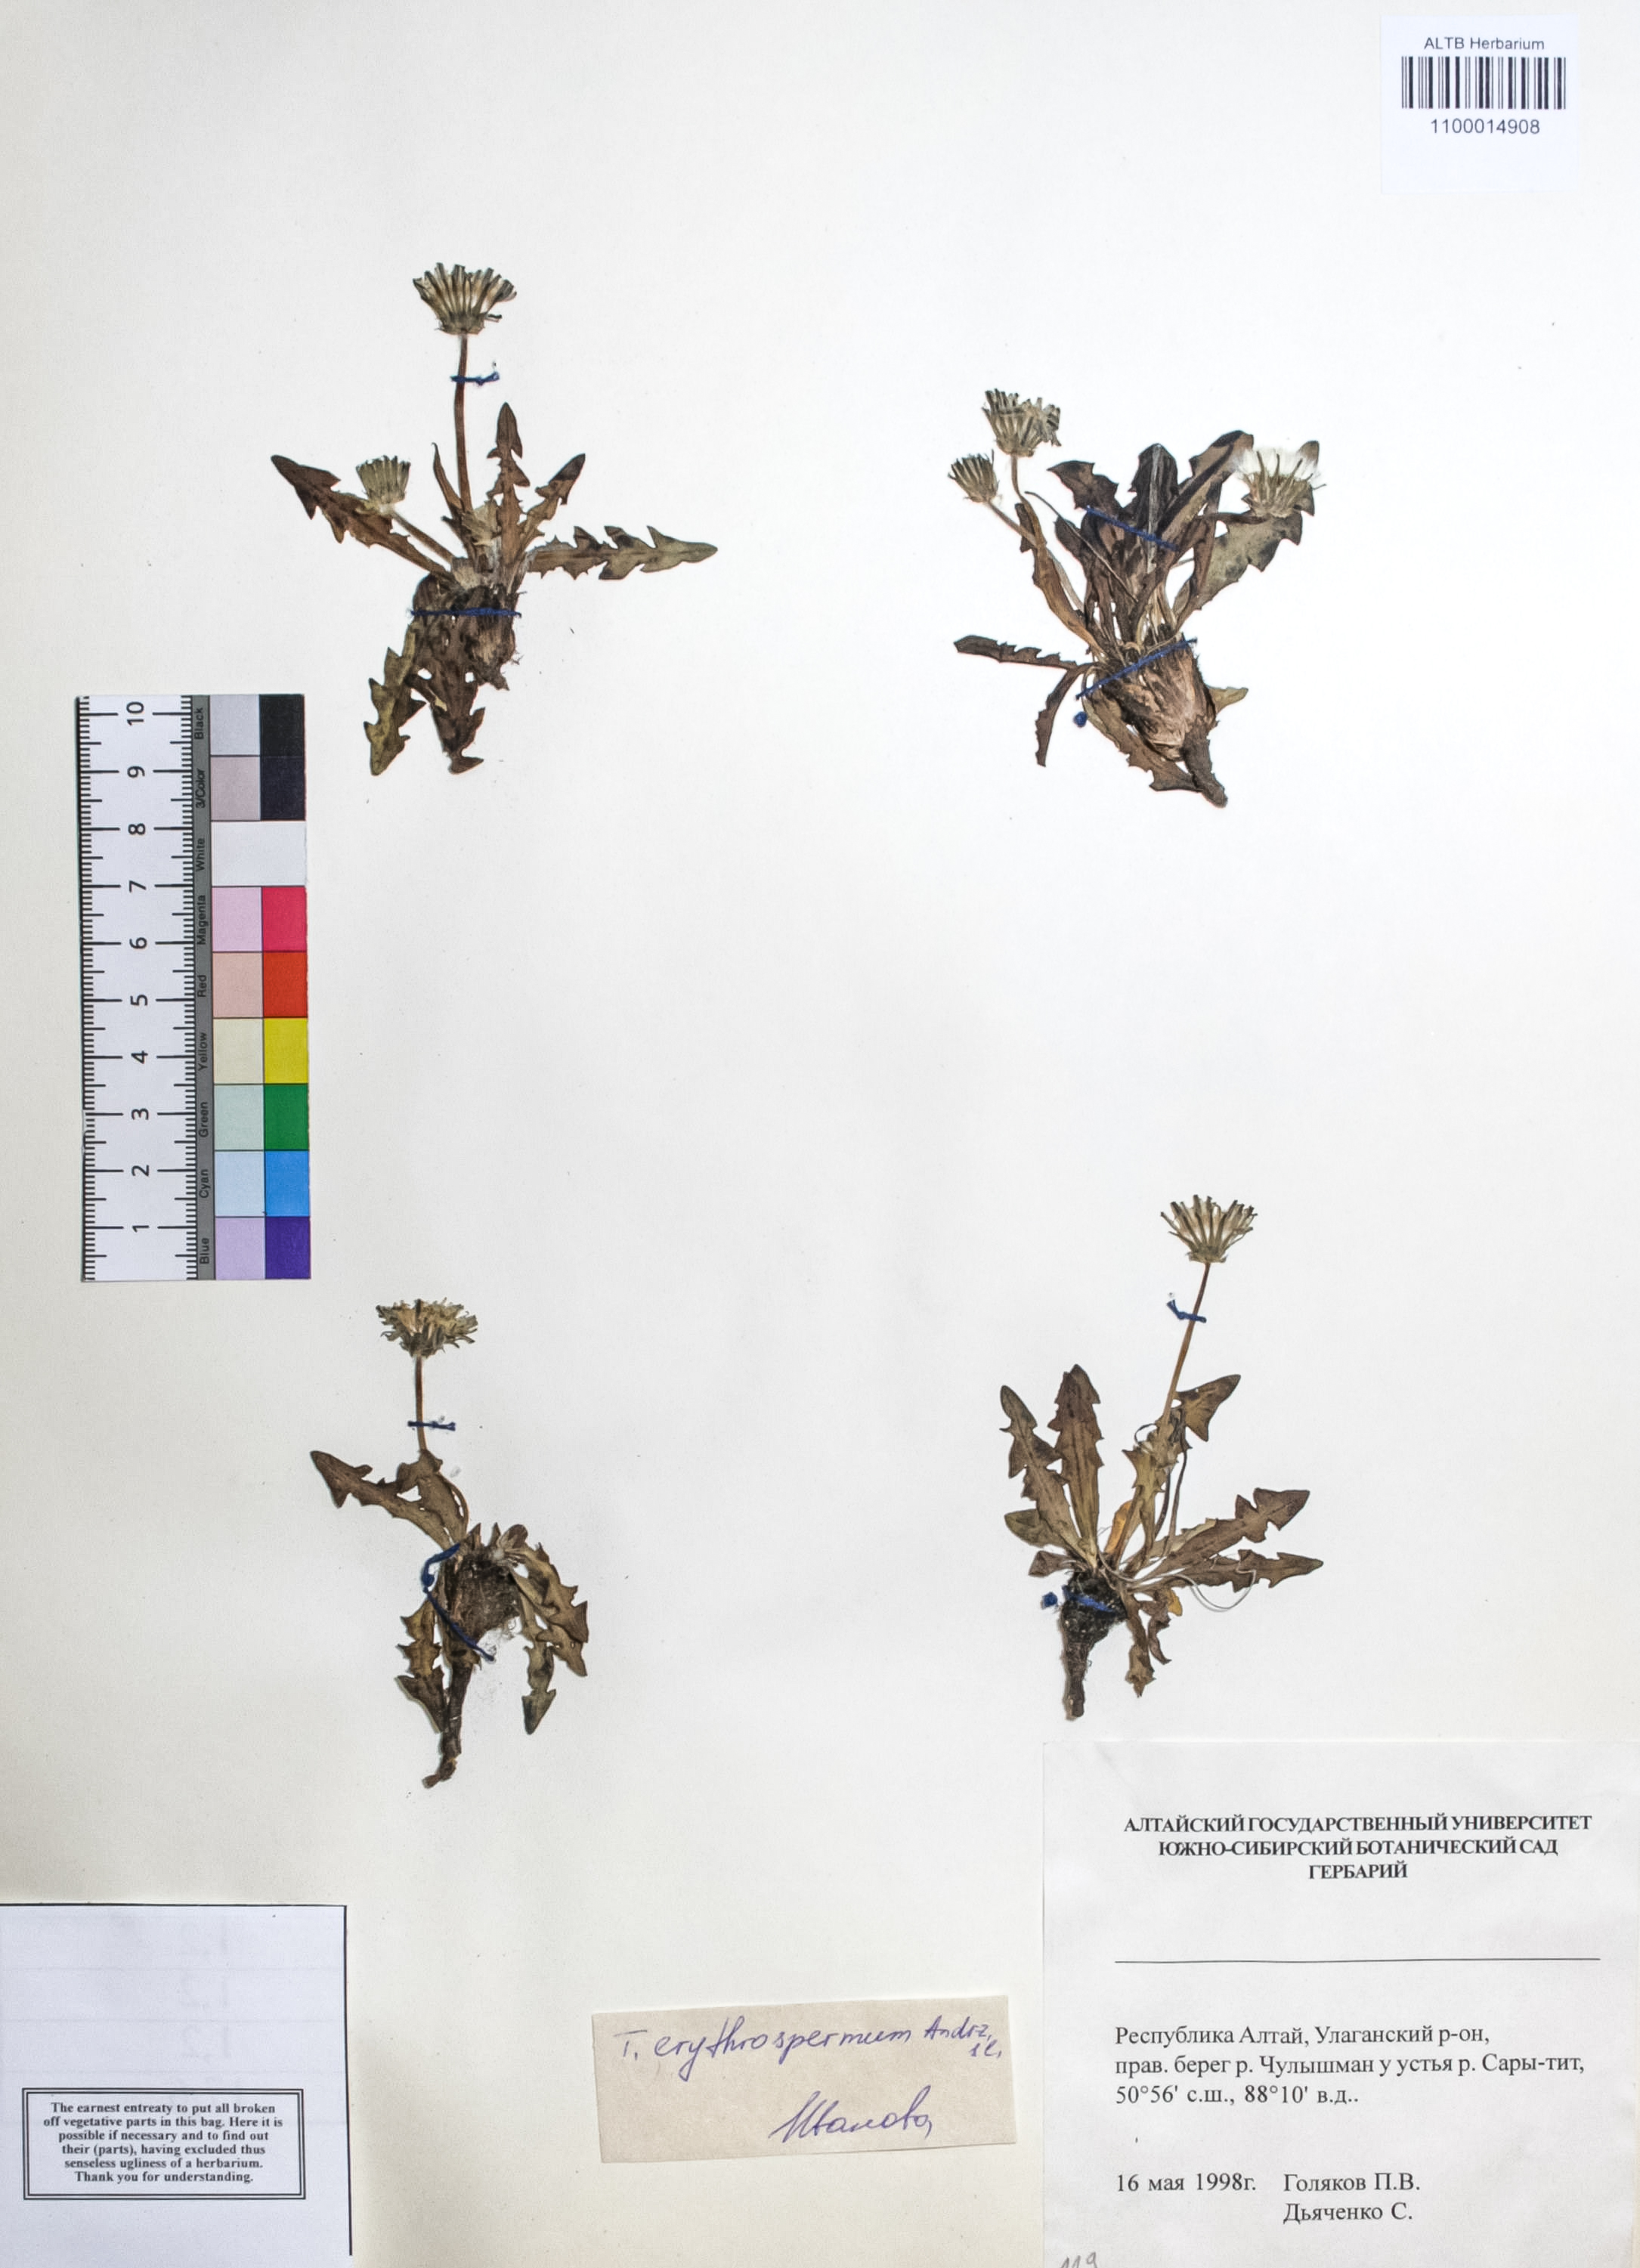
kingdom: Plantae
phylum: Tracheophyta
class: Magnoliopsida
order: Asterales
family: Asteraceae
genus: Taraxacum
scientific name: Taraxacum erythrospermum
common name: Rock dandelion
